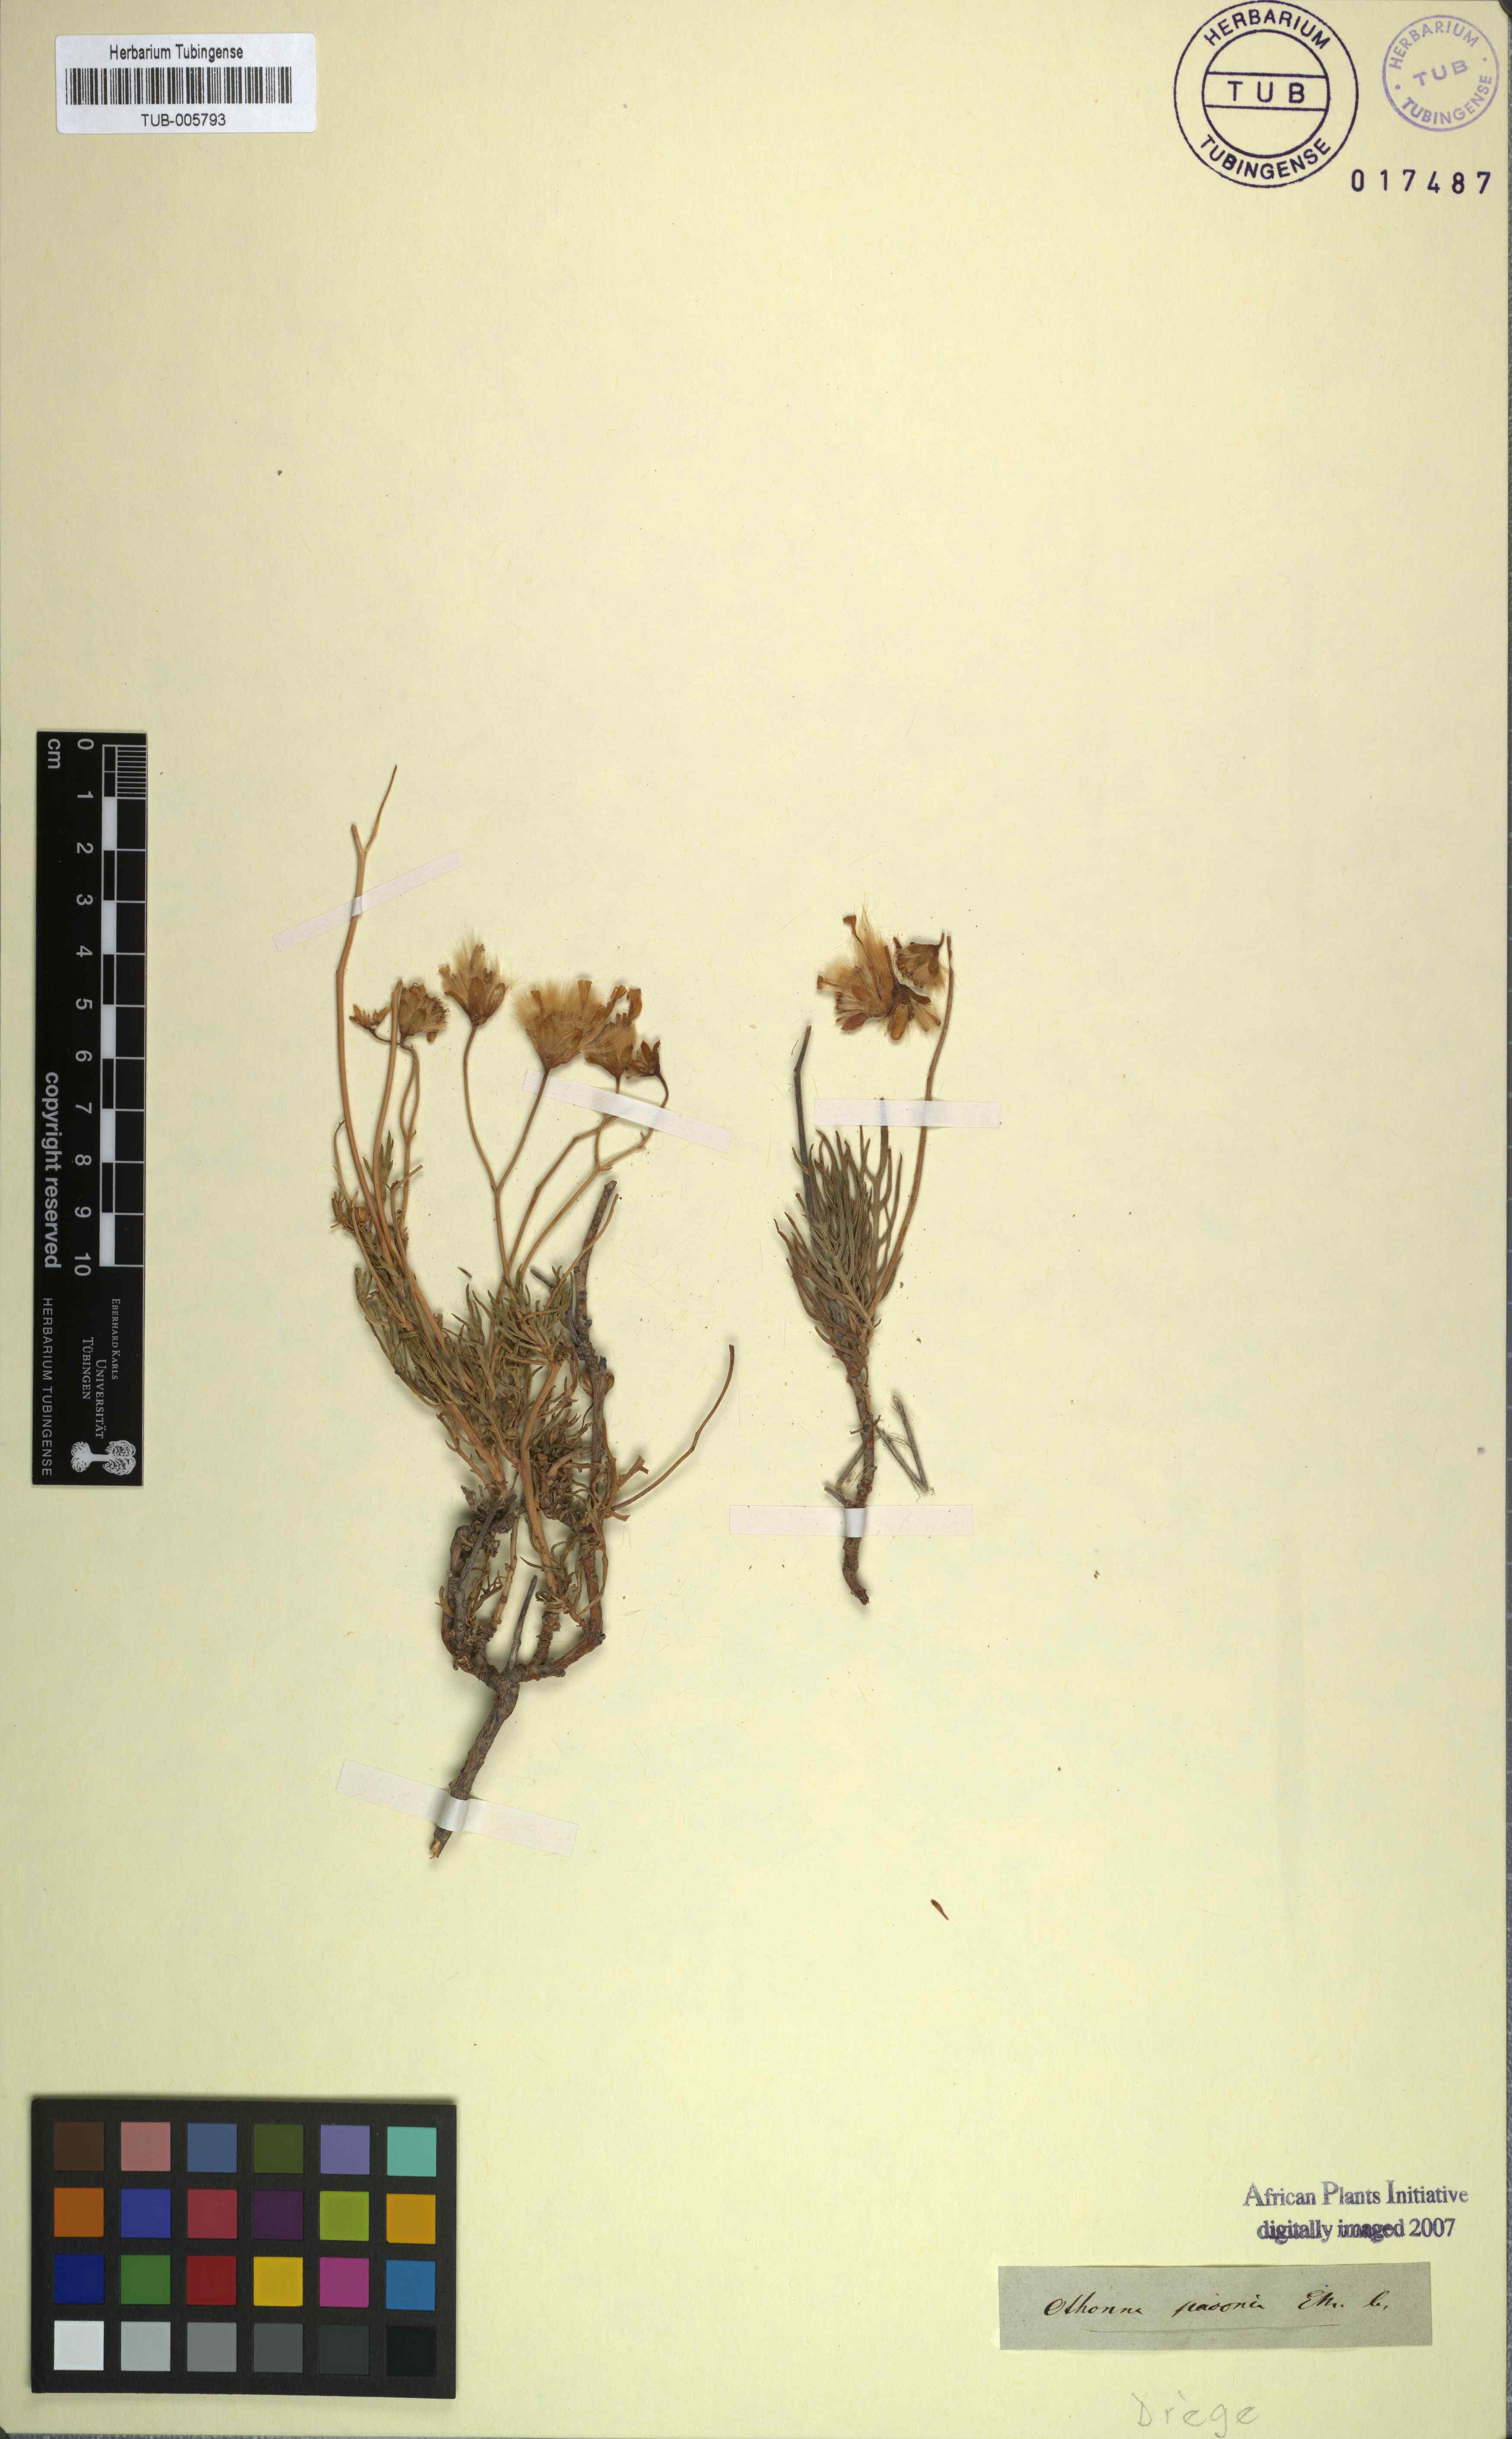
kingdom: Plantae
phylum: Tracheophyta
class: Magnoliopsida
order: Asterales
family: Asteraceae
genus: Othonna
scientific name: Othonna pavonia
